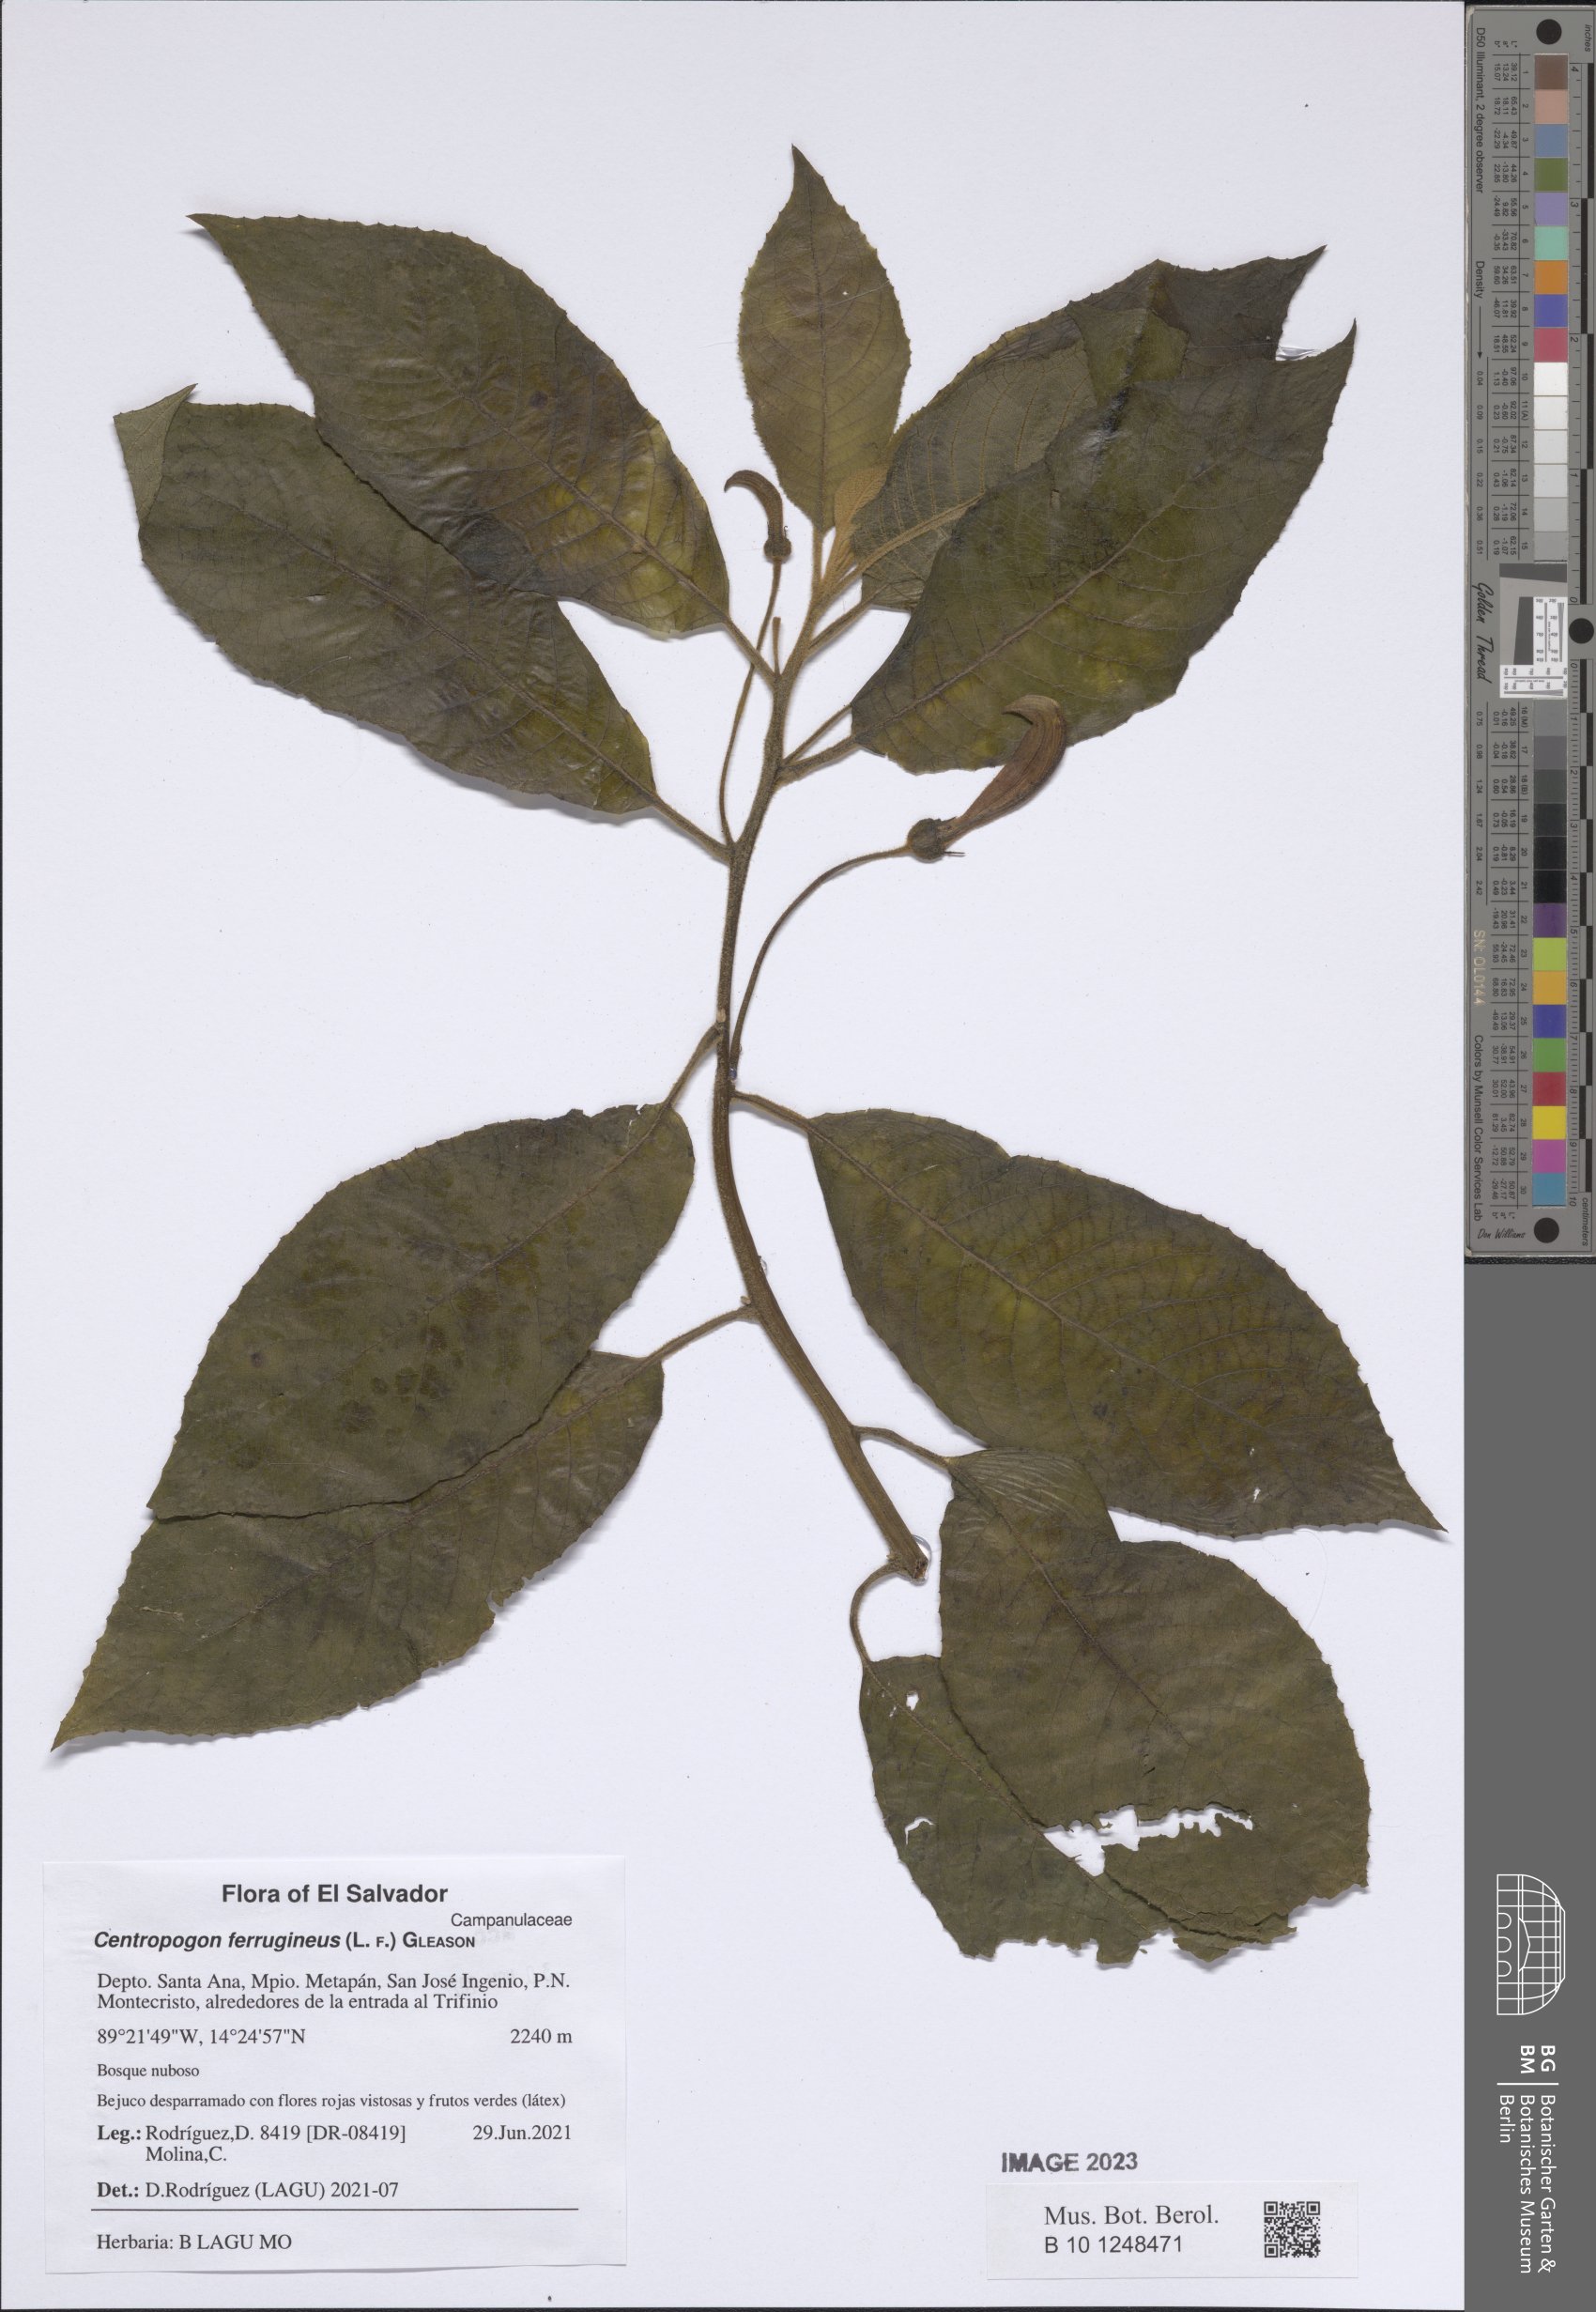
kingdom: Plantae
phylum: Tracheophyta
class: Magnoliopsida
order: Asterales
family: Campanulaceae
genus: Centropogon
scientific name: Centropogon ferrugineus
